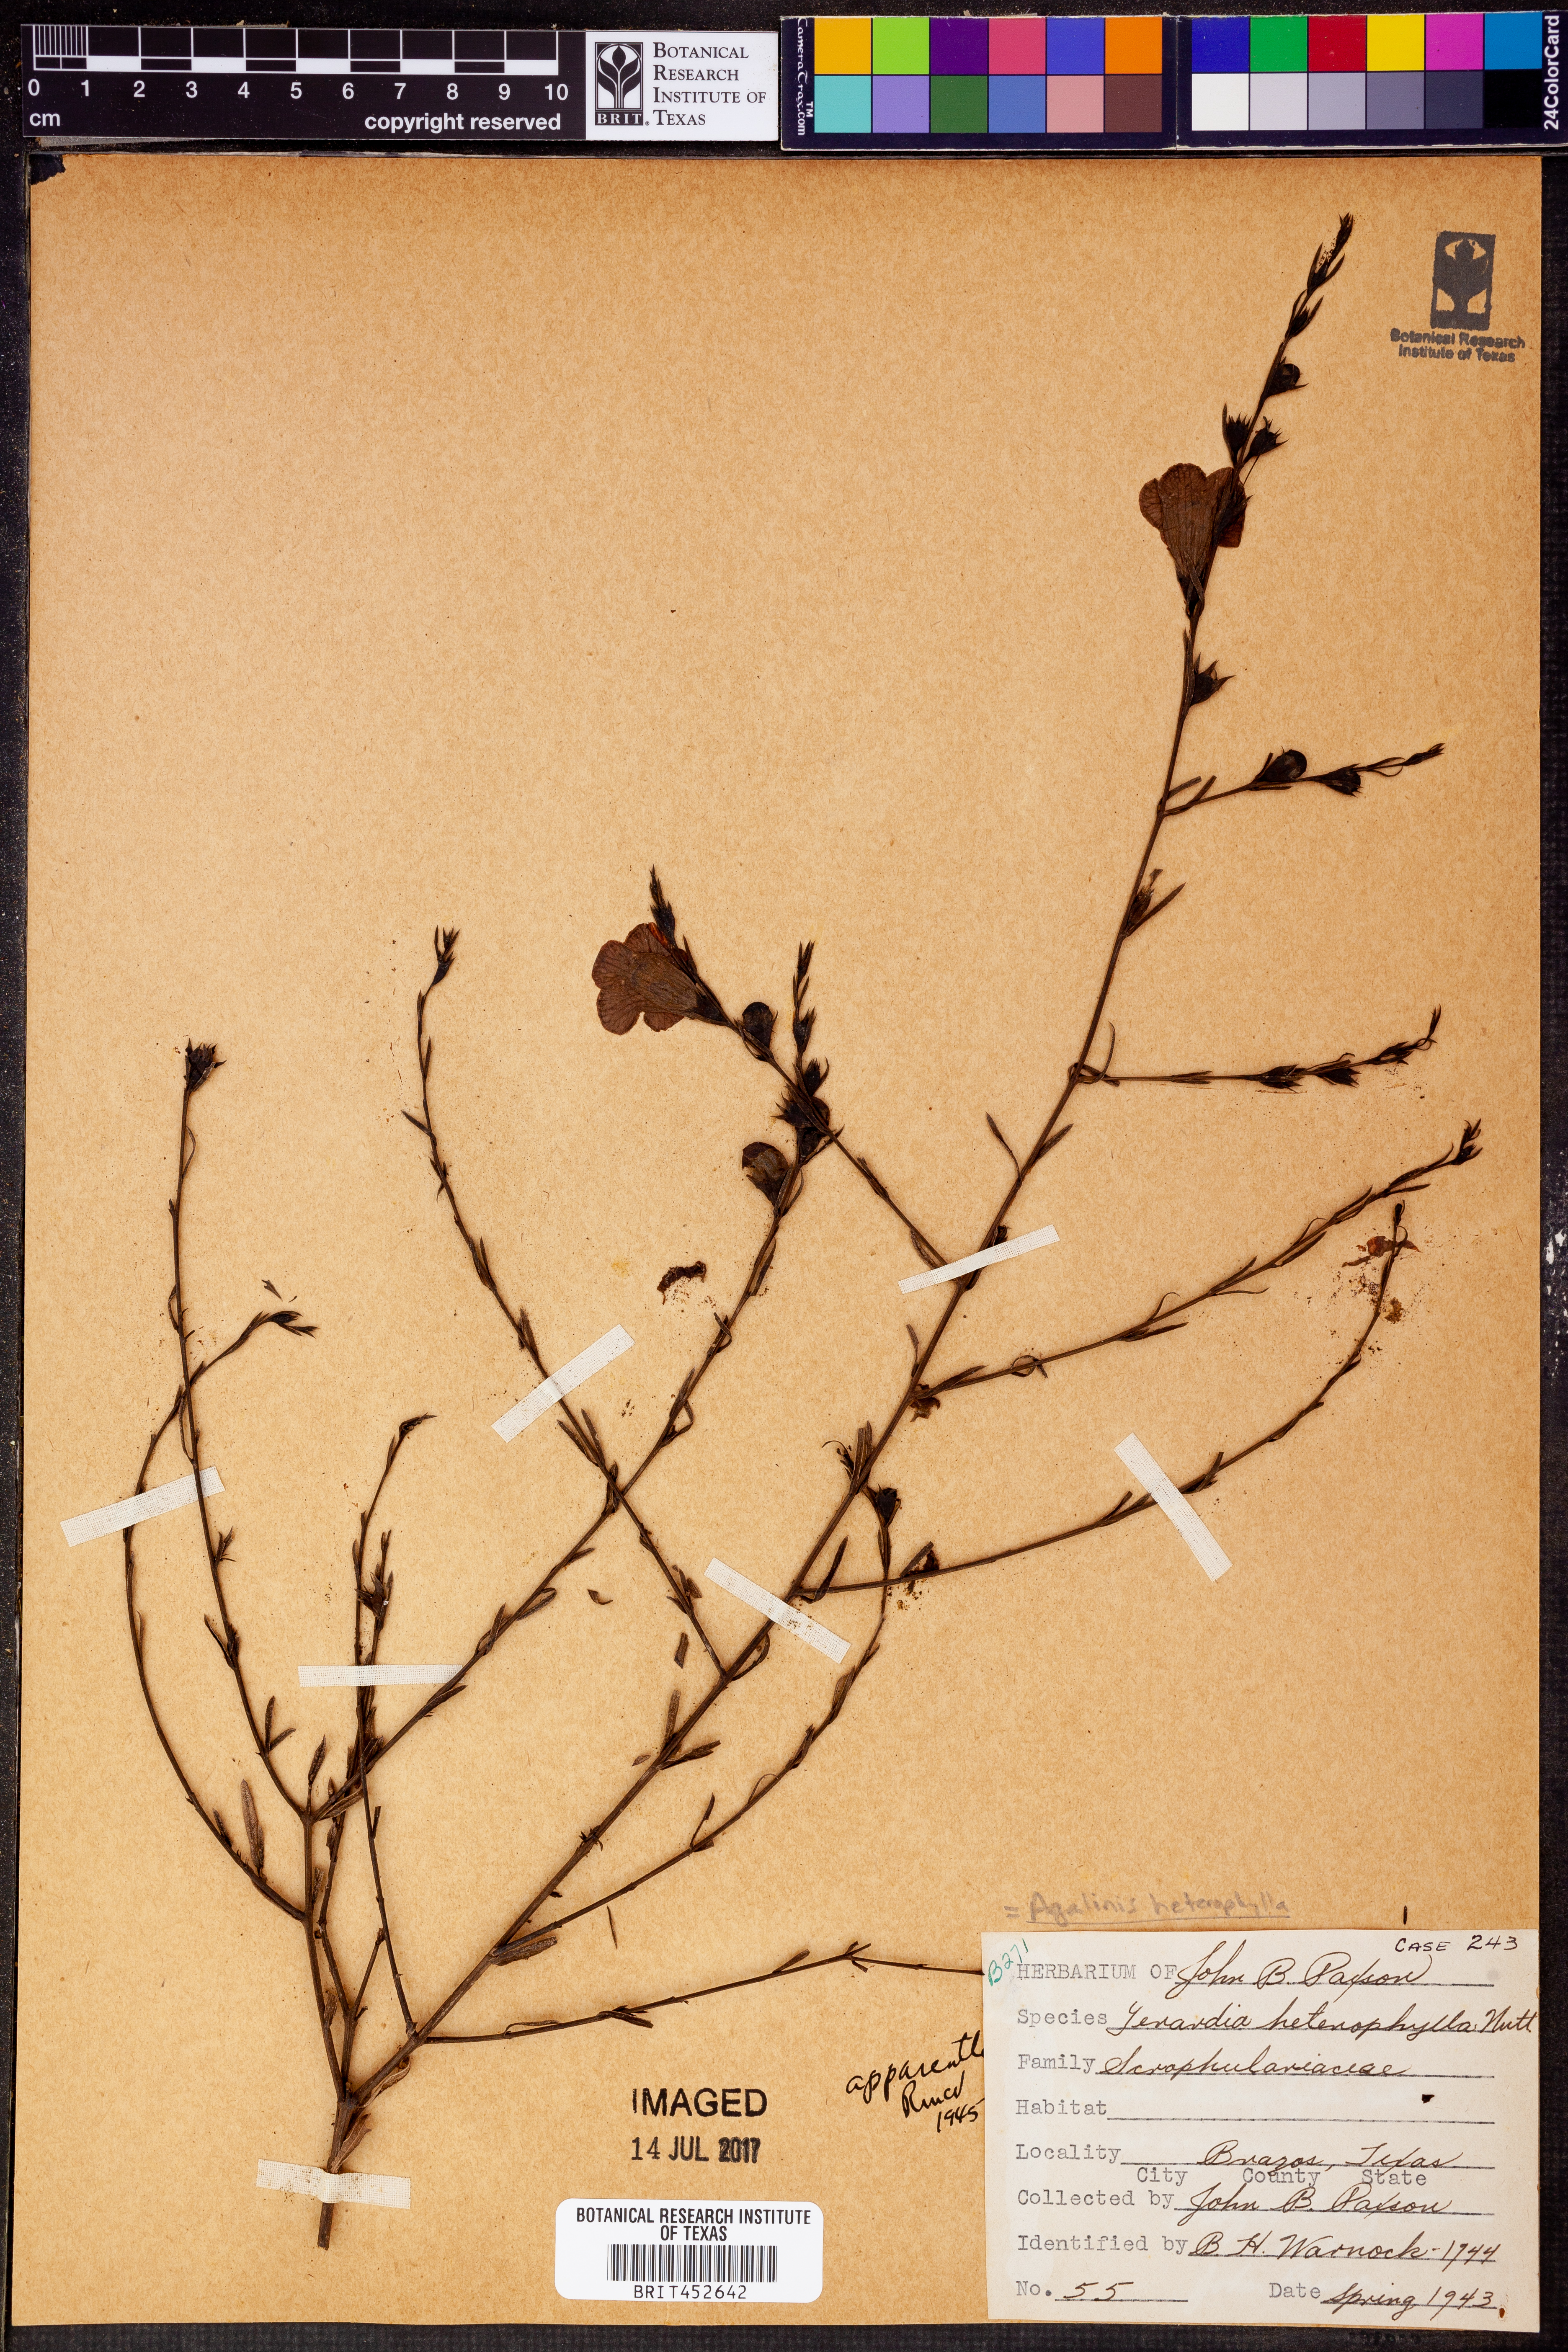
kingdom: Plantae
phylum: Tracheophyta
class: Magnoliopsida
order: Lamiales
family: Orobanchaceae
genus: Agalinis
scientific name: Agalinis heterophylla
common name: Prairie agalinis
